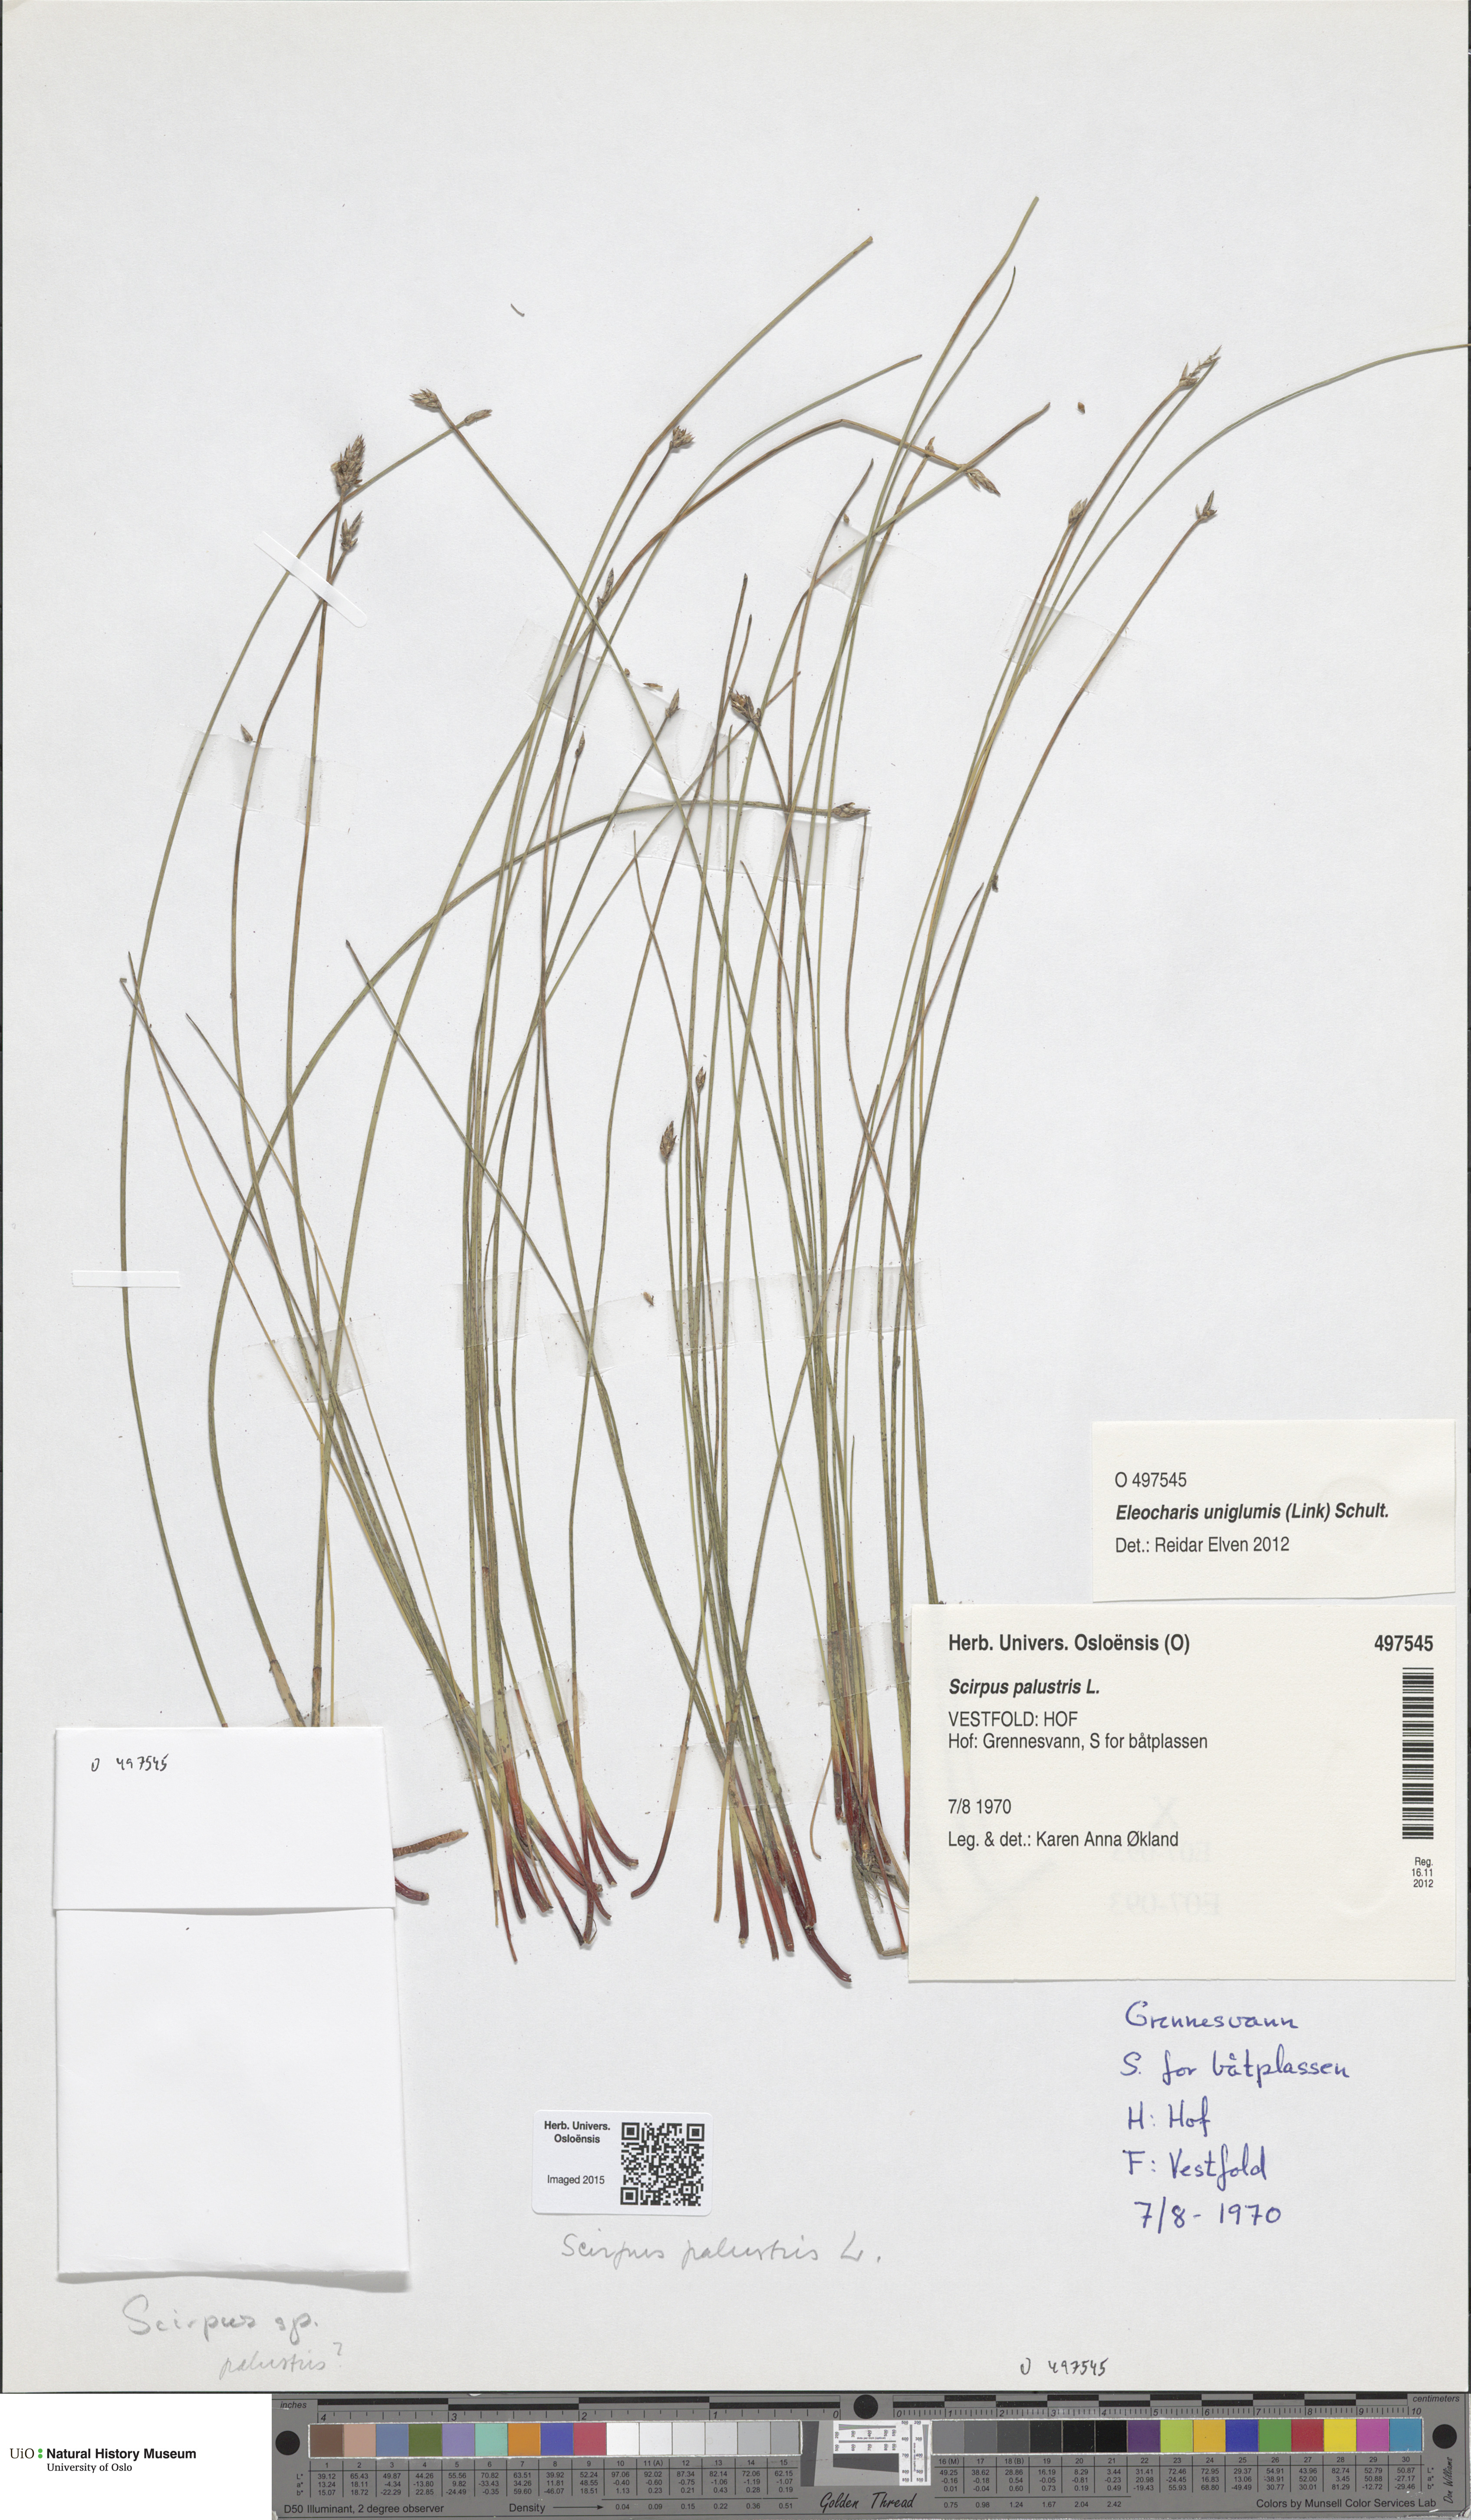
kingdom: Plantae
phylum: Tracheophyta
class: Liliopsida
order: Poales
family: Cyperaceae
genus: Eleocharis
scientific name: Eleocharis palustris
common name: Common spike-rush
